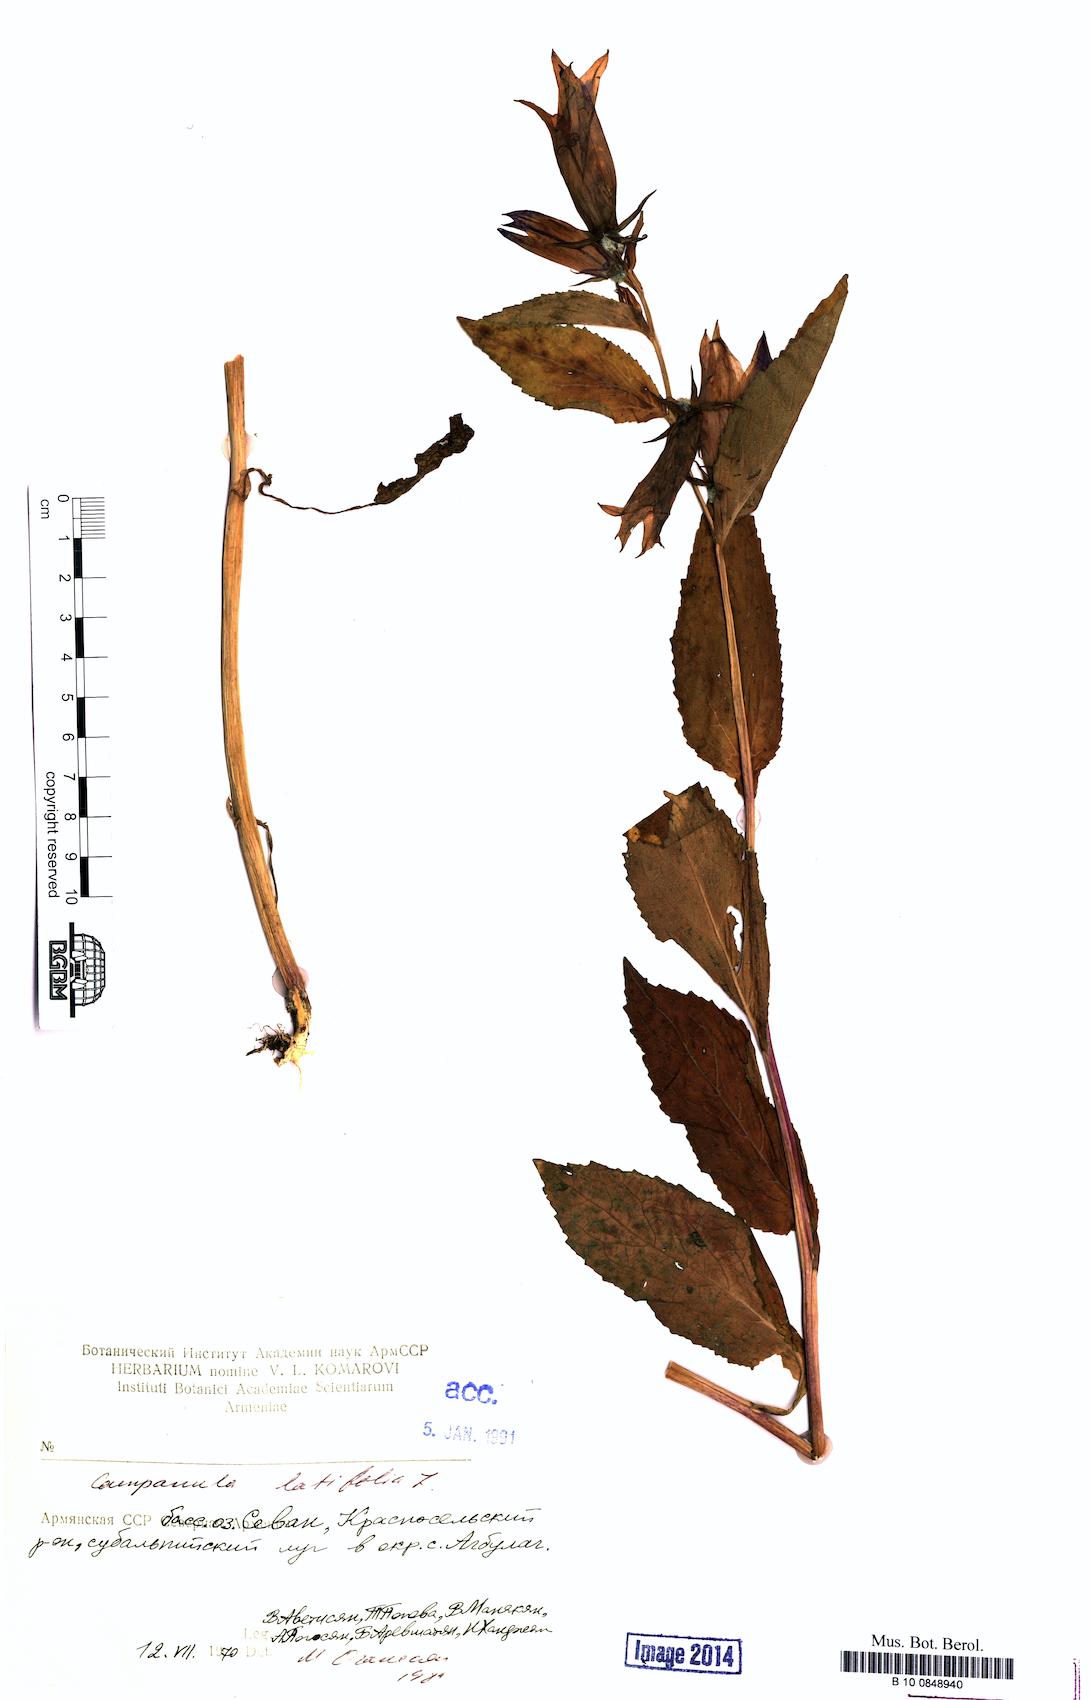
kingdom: Plantae
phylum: Tracheophyta
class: Magnoliopsida
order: Asterales
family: Campanulaceae
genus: Campanula
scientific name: Campanula latifolia
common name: Giant bellflower
